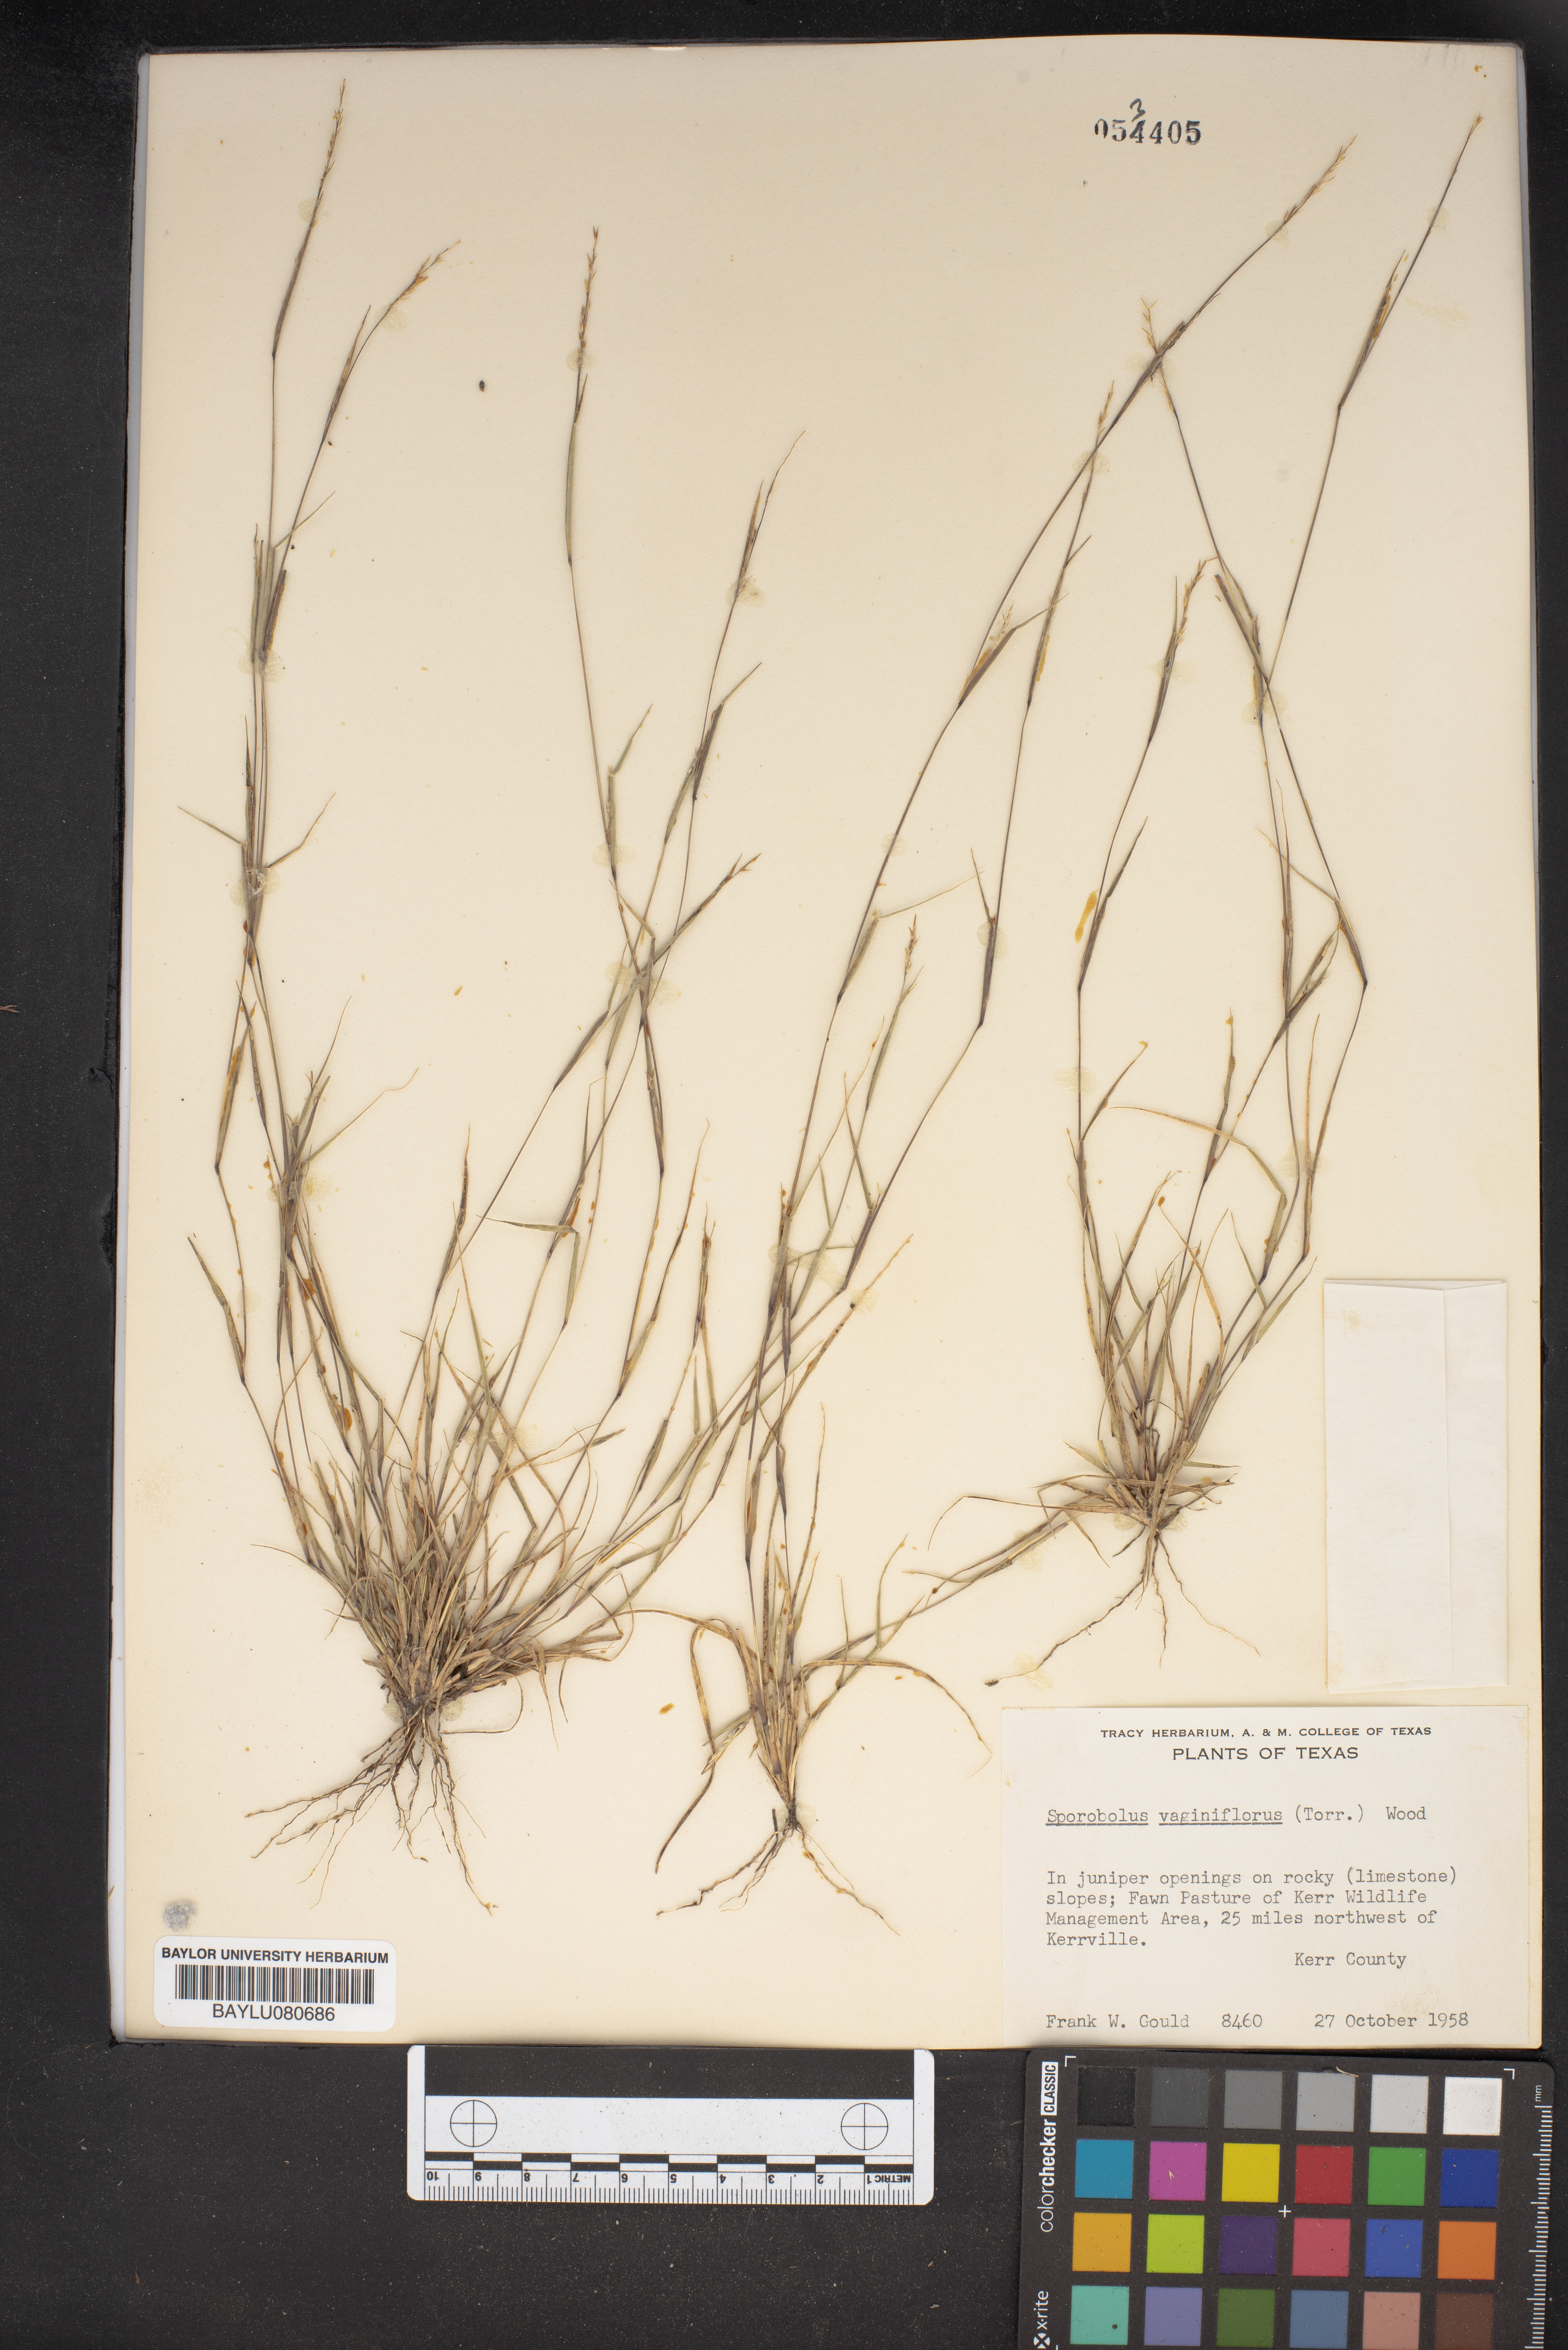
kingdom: Plantae
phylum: Tracheophyta
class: Liliopsida
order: Poales
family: Poaceae
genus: Sporobolus
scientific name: Sporobolus vaginiflorus
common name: Poverty dropseed
